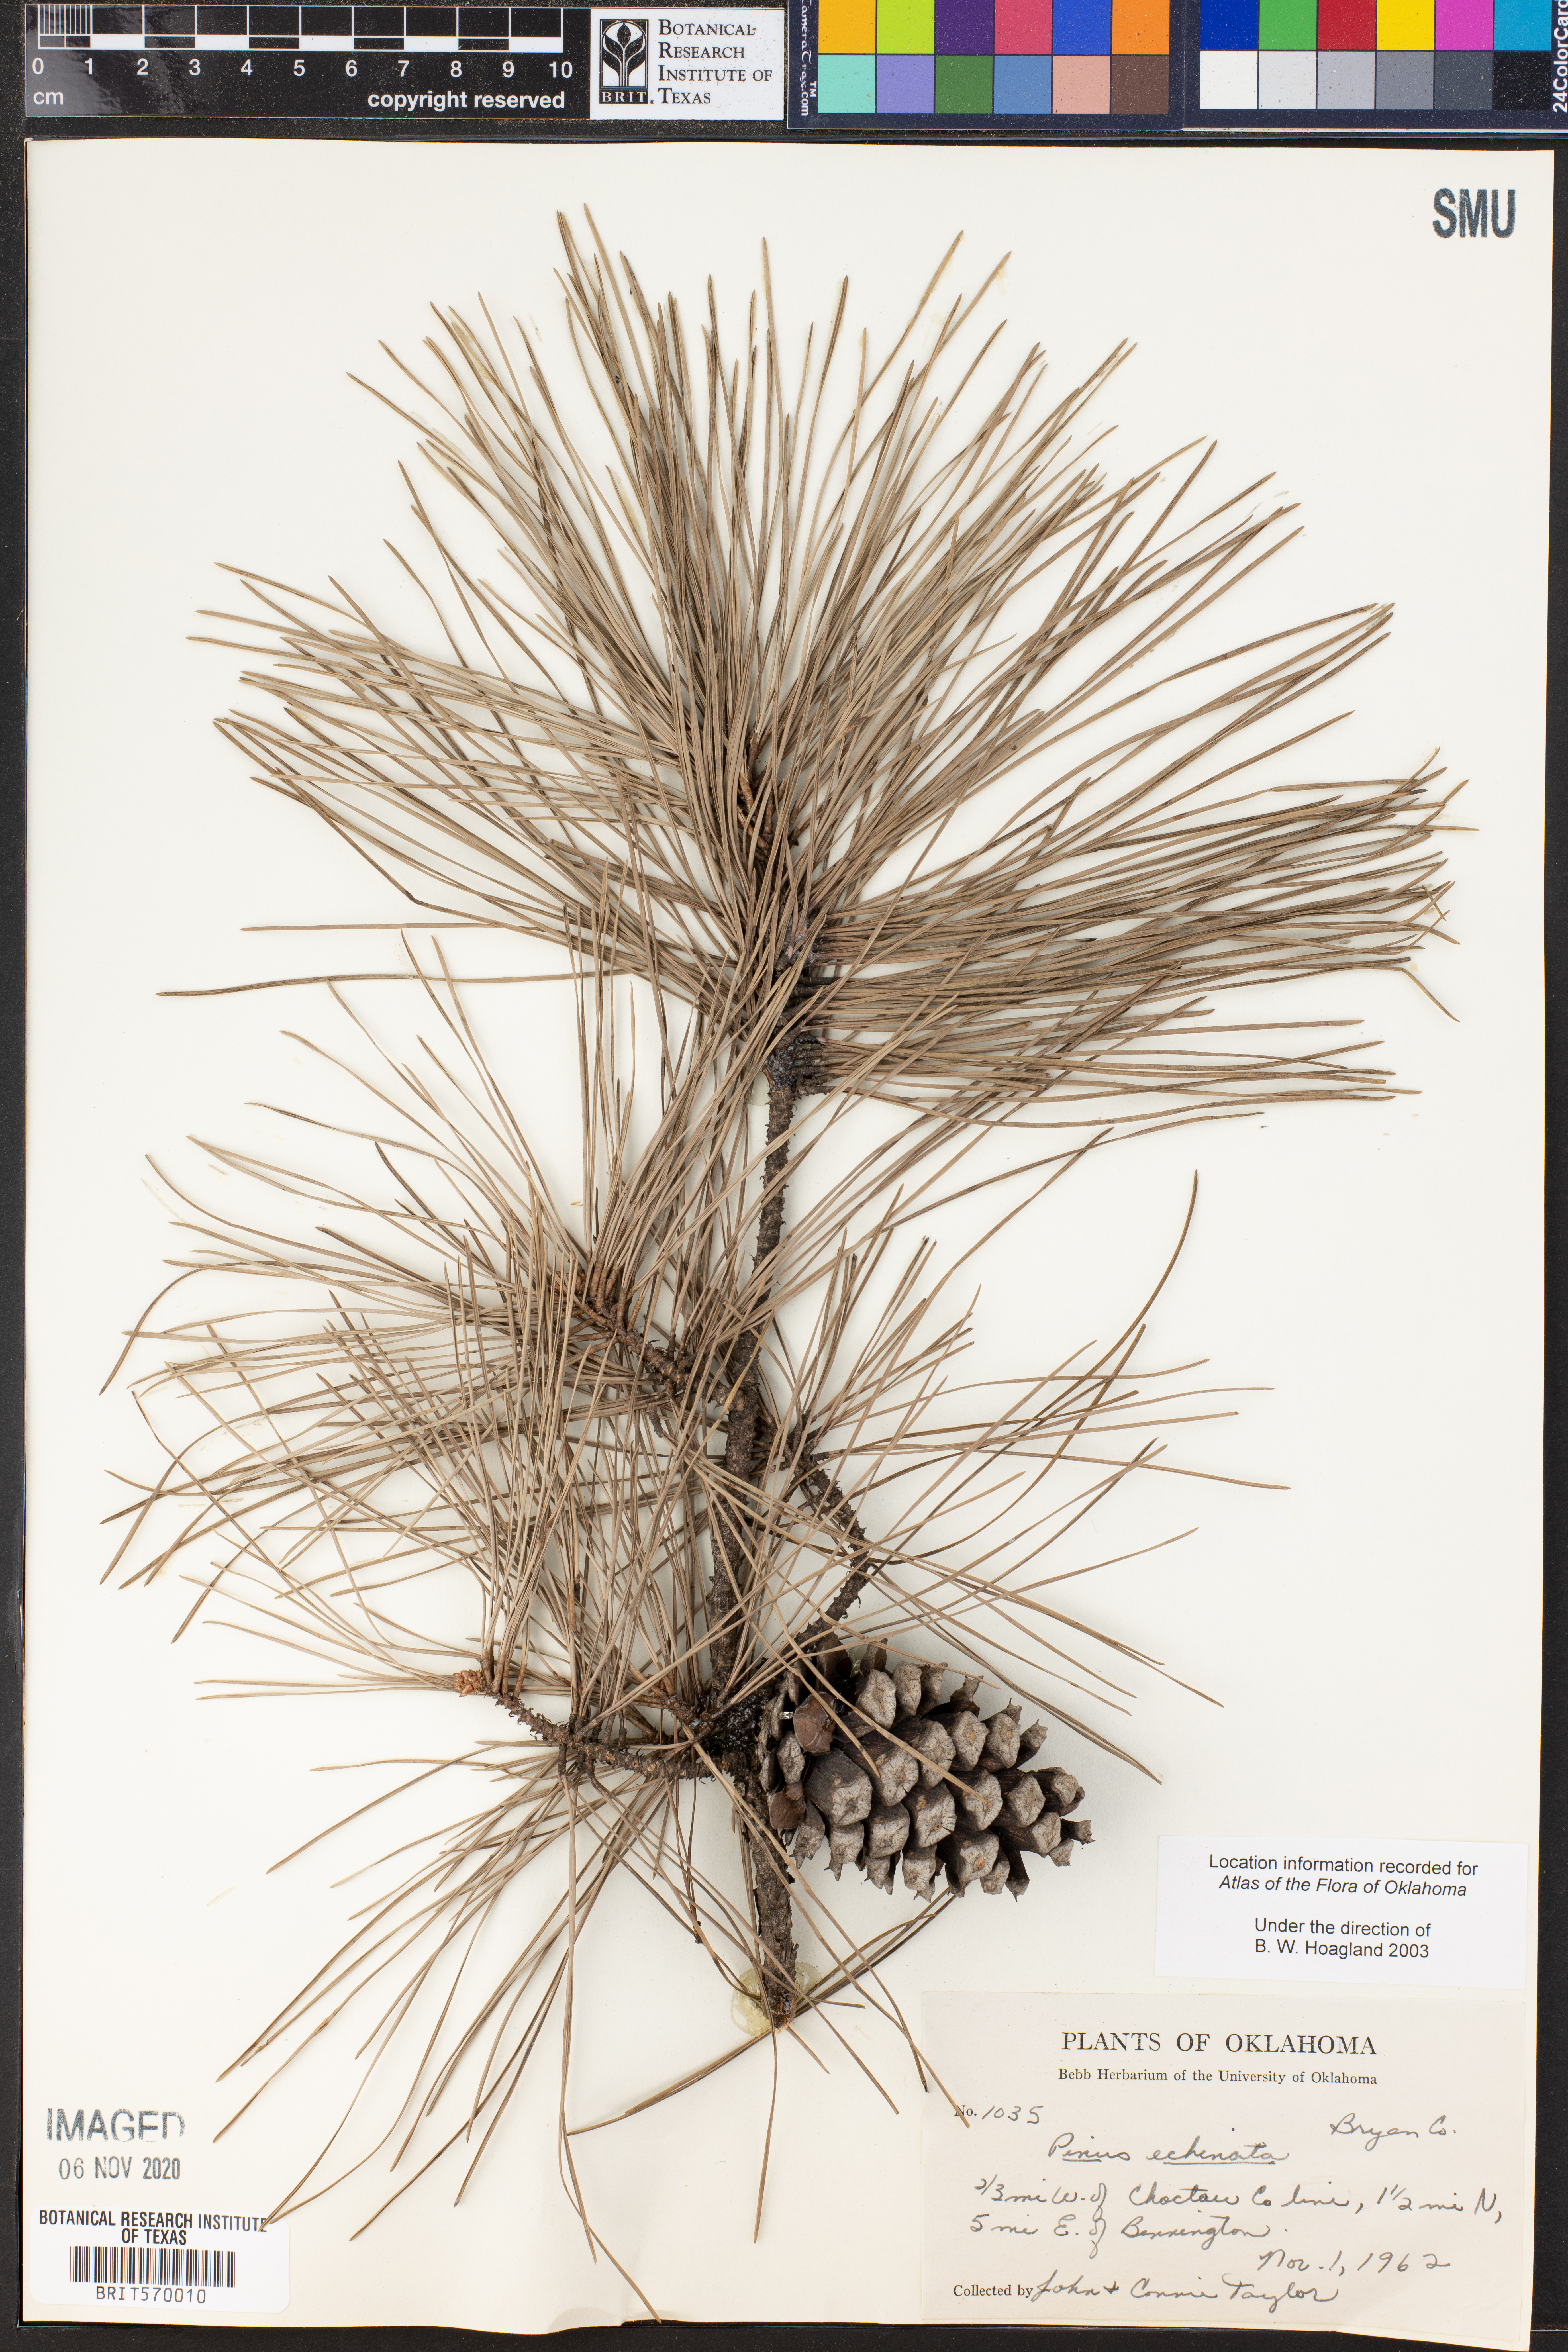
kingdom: Plantae
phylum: Tracheophyta
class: Pinopsida
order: Pinales
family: Pinaceae
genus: Pinus
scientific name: Pinus echinata
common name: Shortleaf pine
